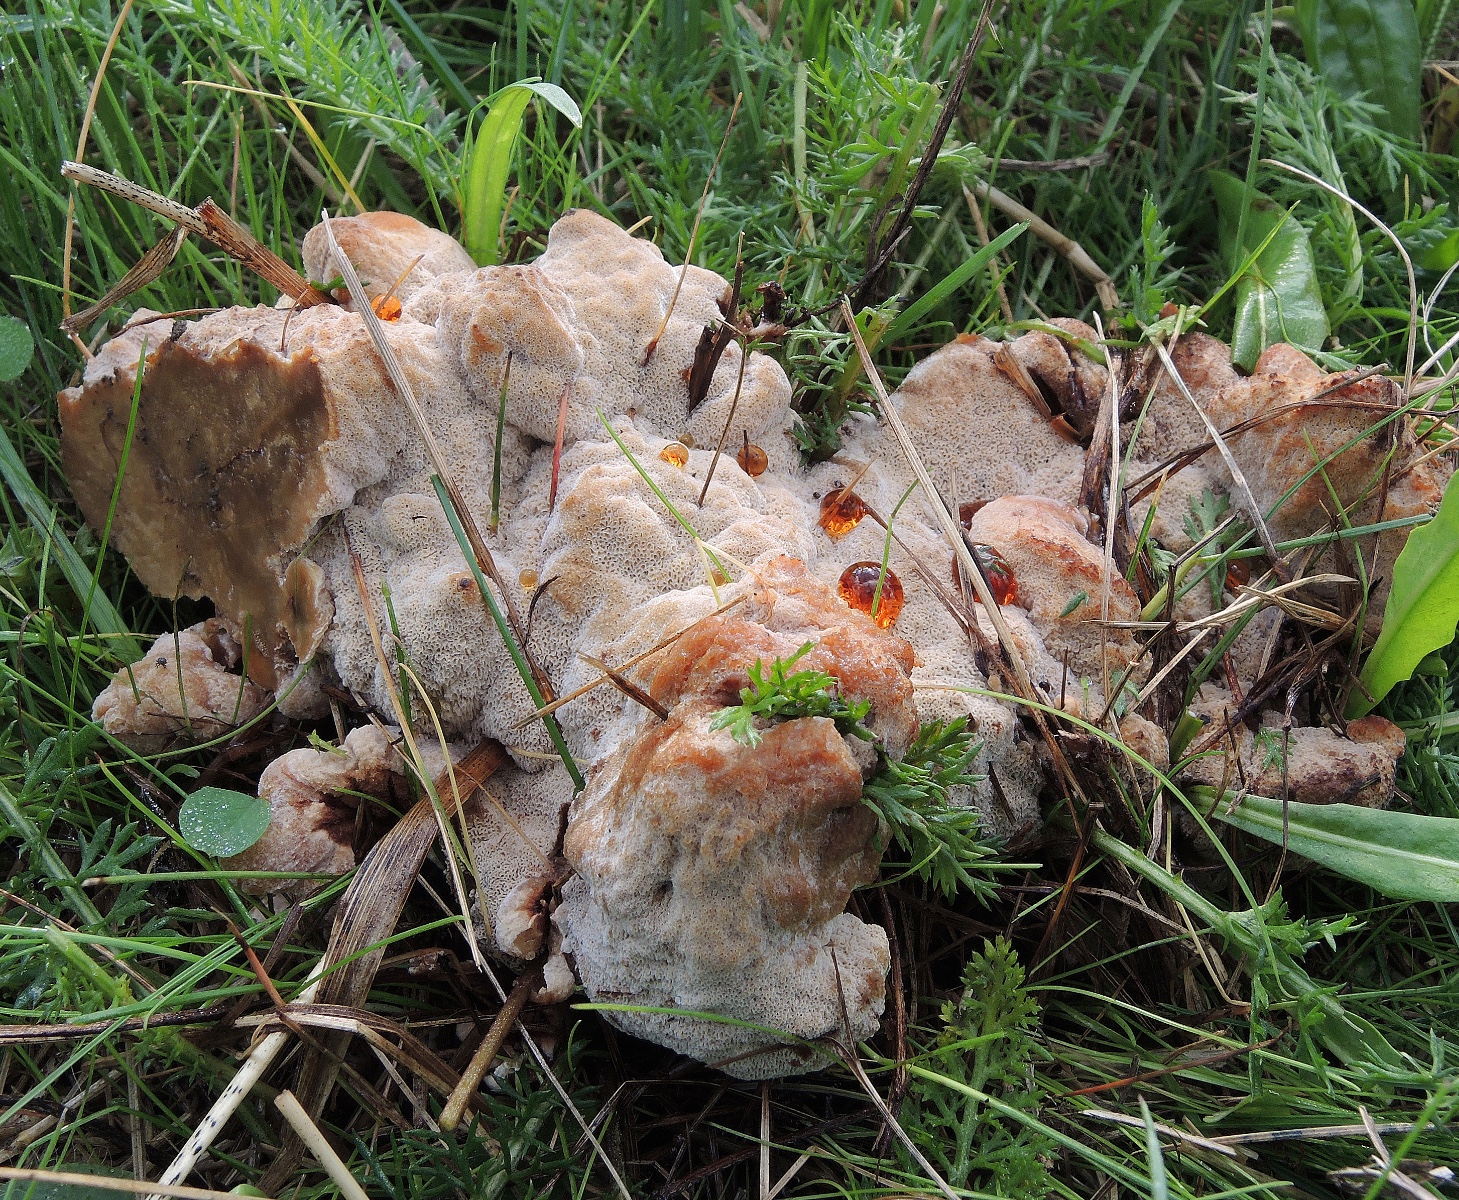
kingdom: Fungi
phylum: Basidiomycota
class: Agaricomycetes
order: Polyporales
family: Podoscyphaceae
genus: Abortiporus
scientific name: Abortiporus biennis
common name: rødmende pjalteporesvamp
